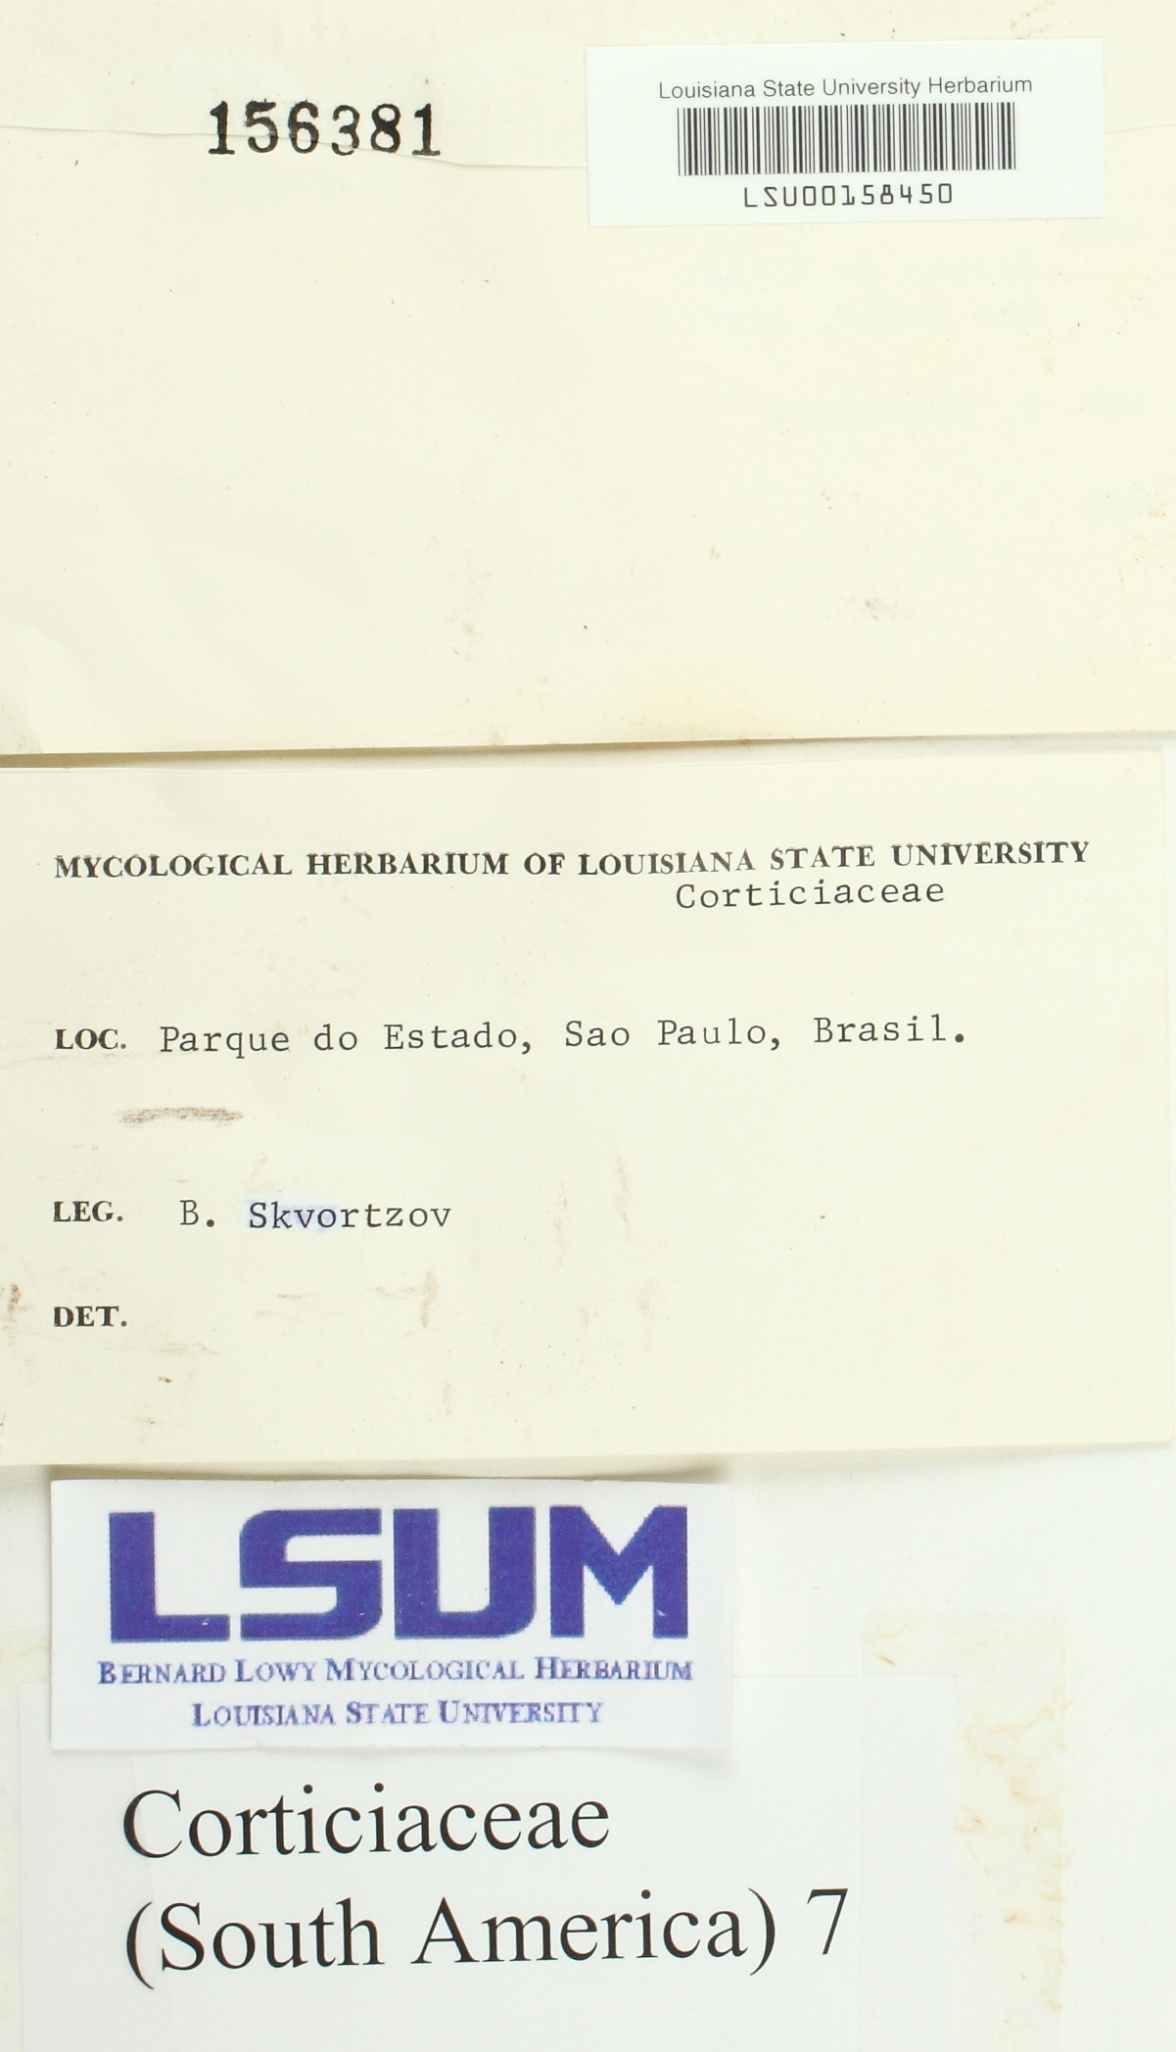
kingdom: Fungi
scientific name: Fungi
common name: Fungi
